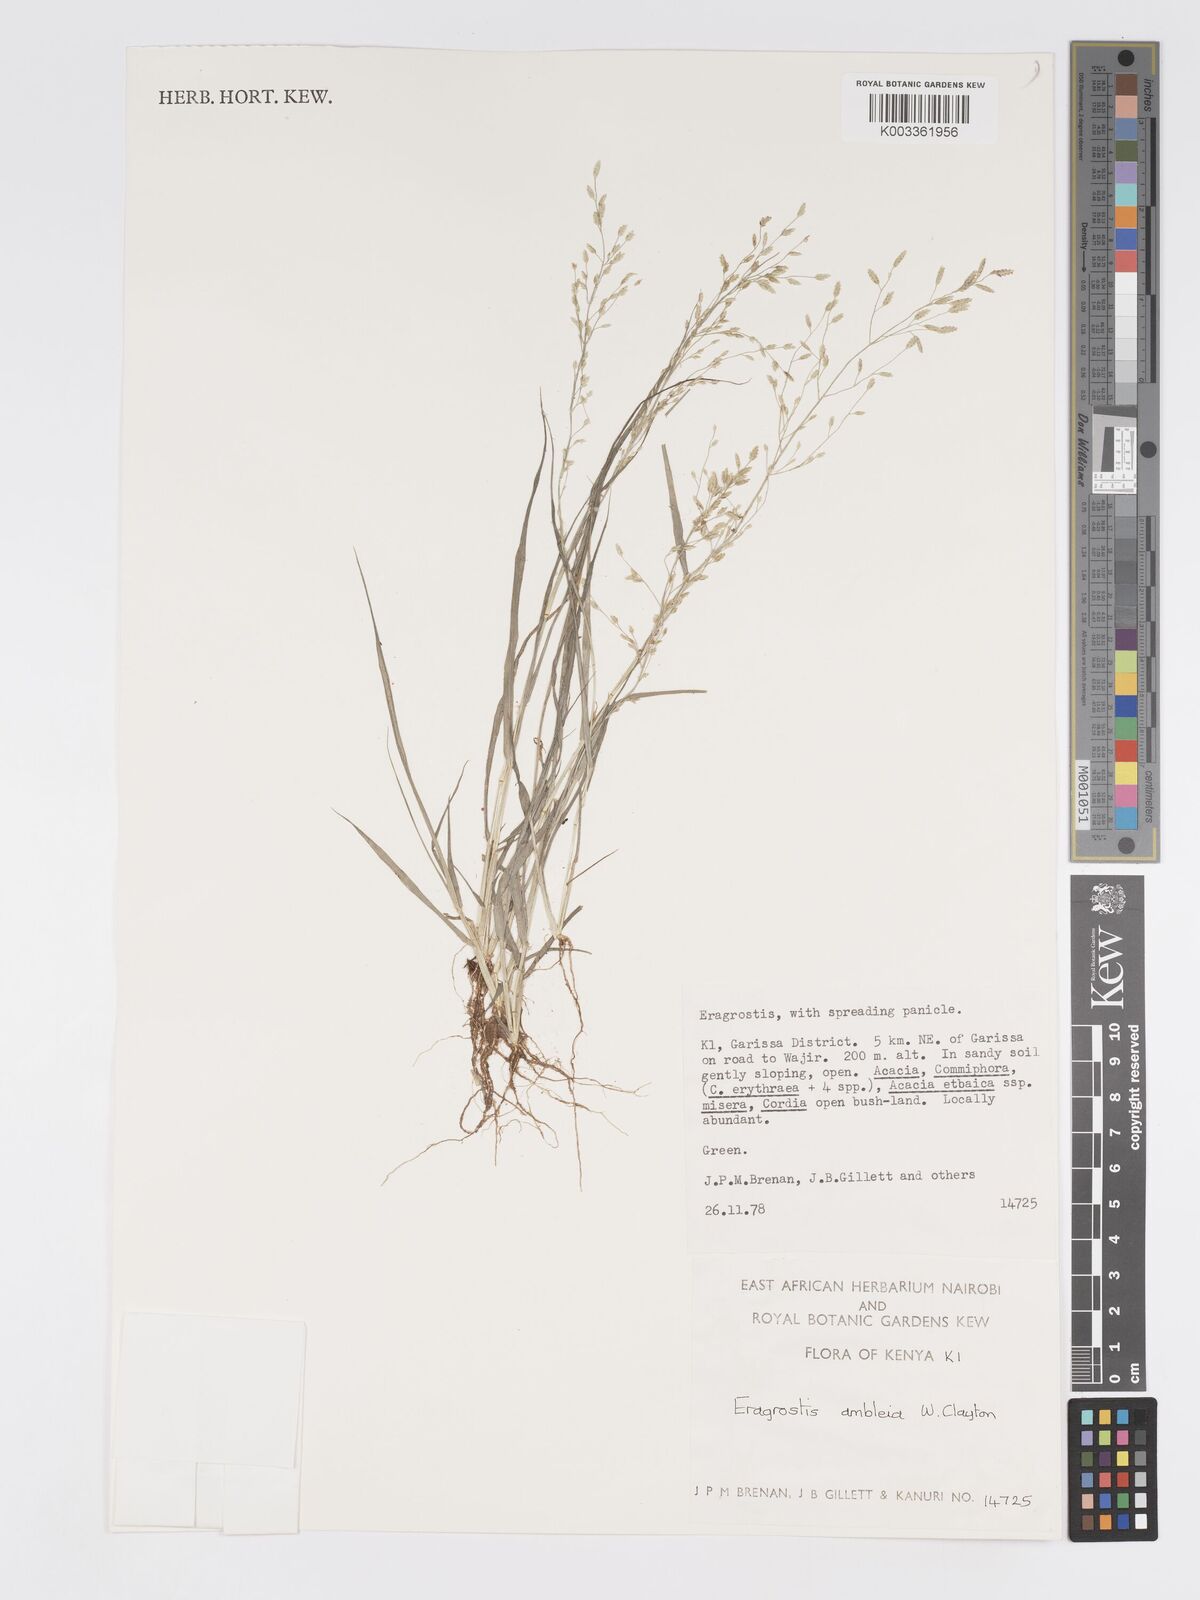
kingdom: Plantae
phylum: Tracheophyta
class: Liliopsida
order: Poales
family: Poaceae
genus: Eragrostis
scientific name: Eragrostis ambleia
